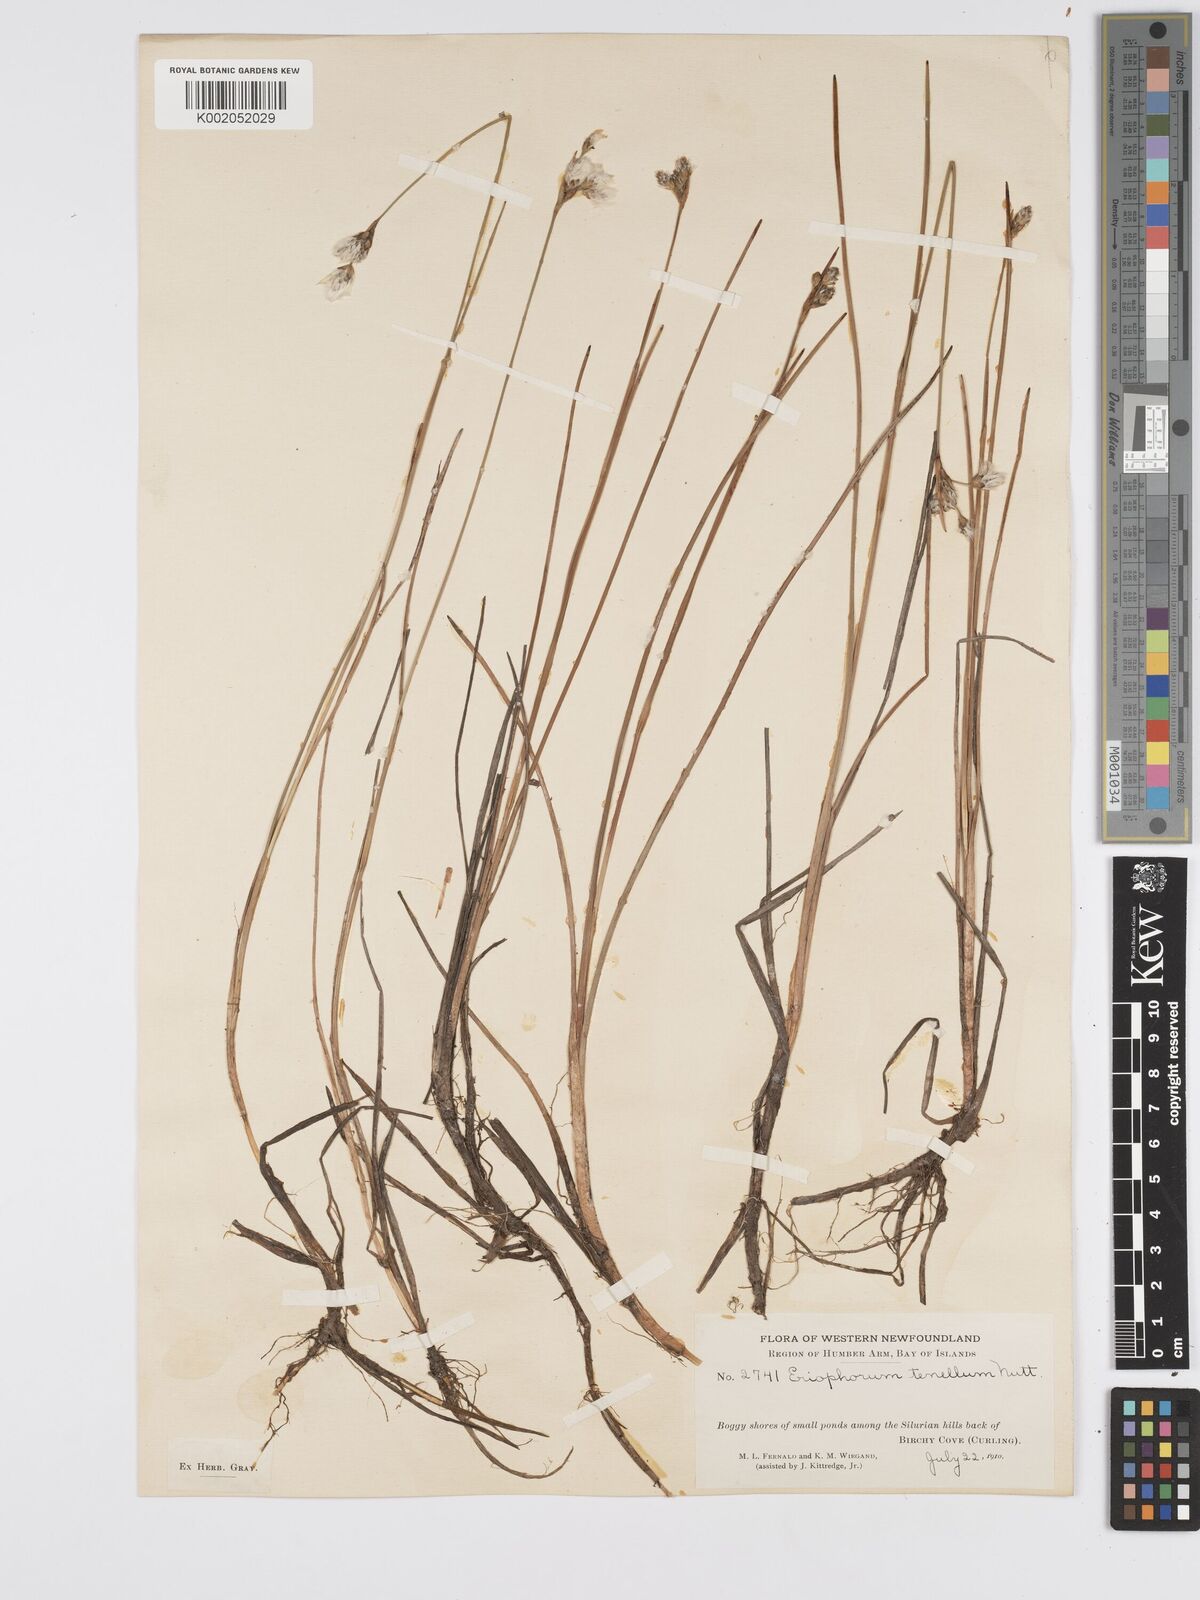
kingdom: Plantae
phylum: Tracheophyta
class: Liliopsida
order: Poales
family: Cyperaceae
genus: Eriophorum
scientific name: Eriophorum tenellum
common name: Few-nerved cottongrass
